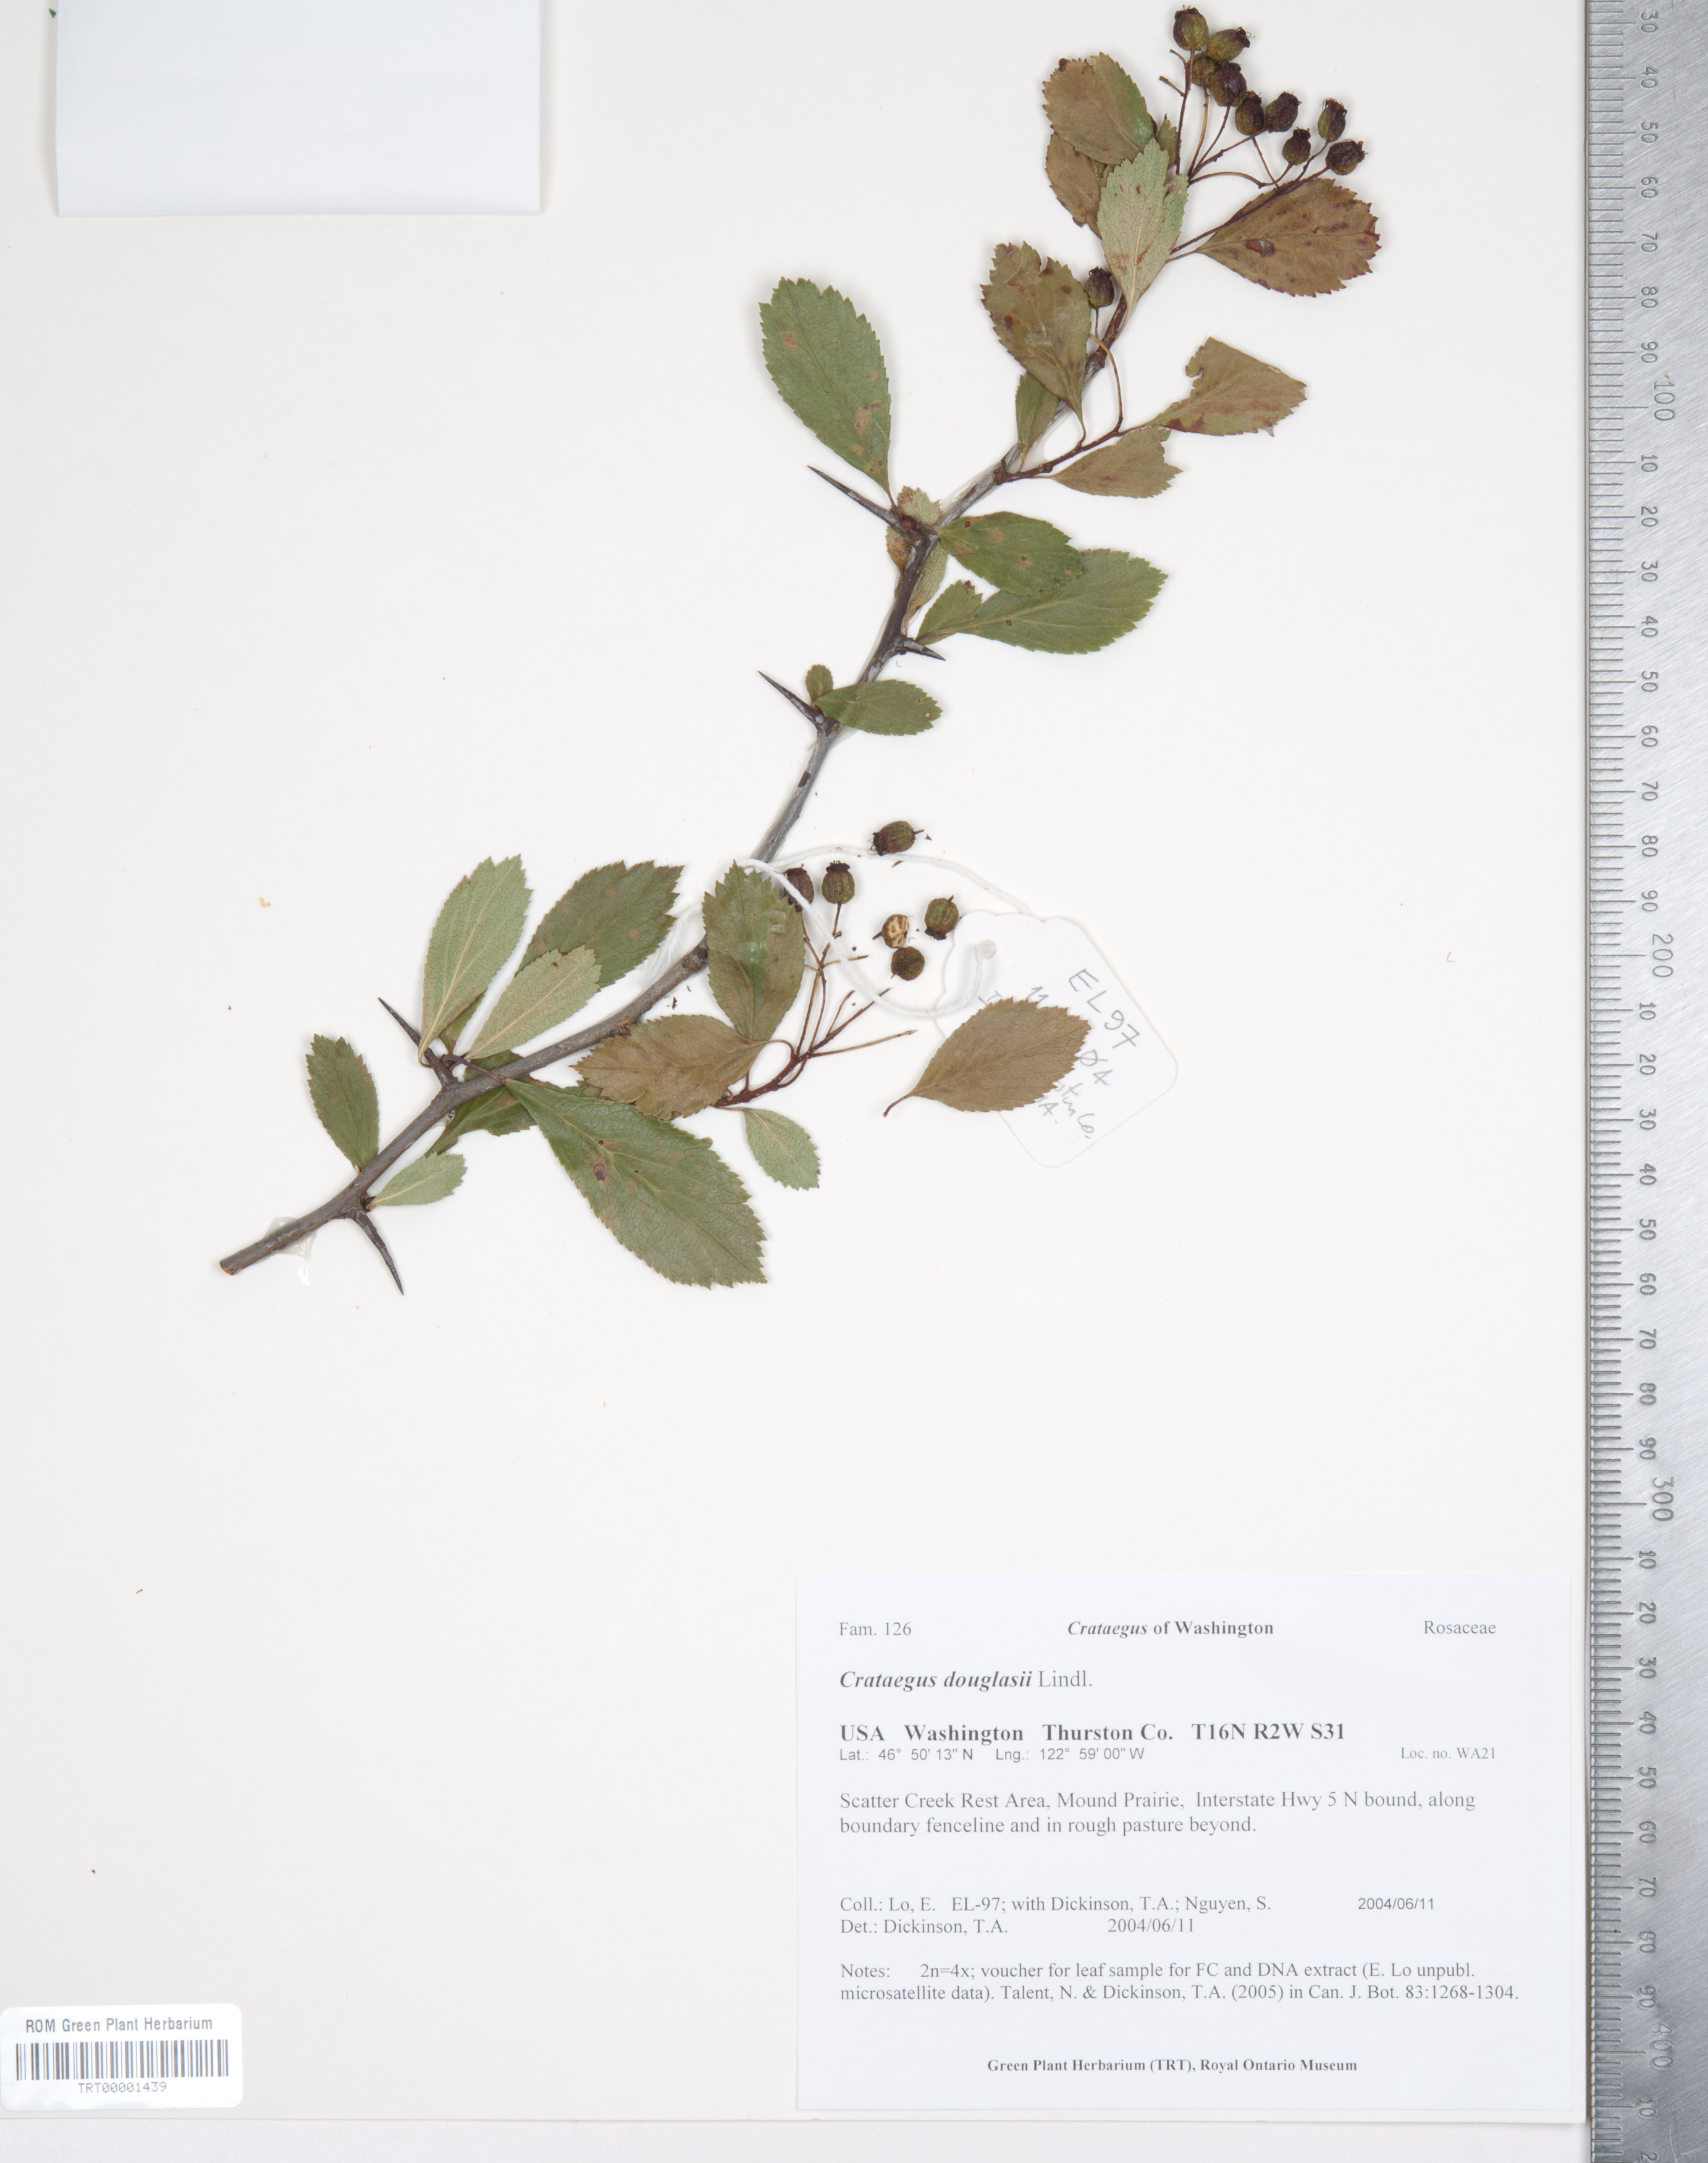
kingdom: Plantae
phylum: Tracheophyta
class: Magnoliopsida
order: Rosales
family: Rosaceae
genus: Crataegus
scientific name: Crataegus douglasii
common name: Black hawthorn
